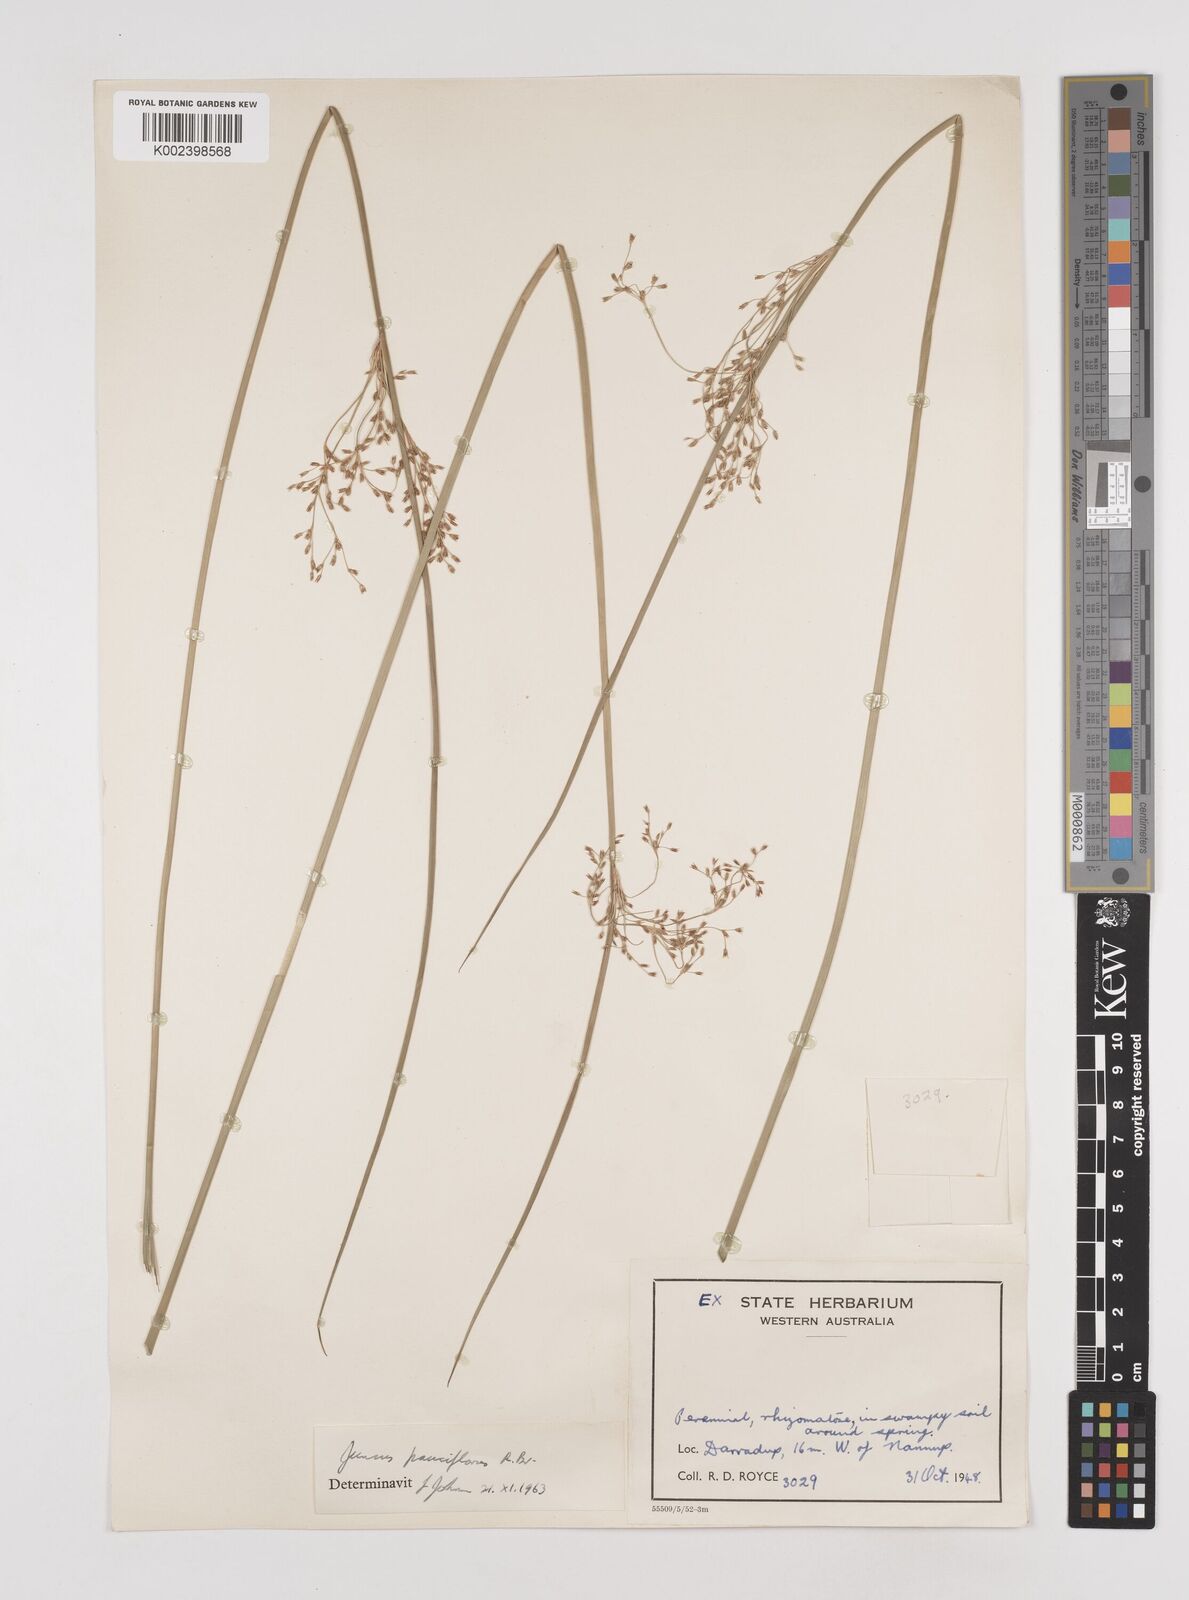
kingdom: Plantae
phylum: Tracheophyta
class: Liliopsida
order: Poales
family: Juncaceae
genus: Juncus
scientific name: Juncus pauciflorus
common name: Loose-flowered rush
